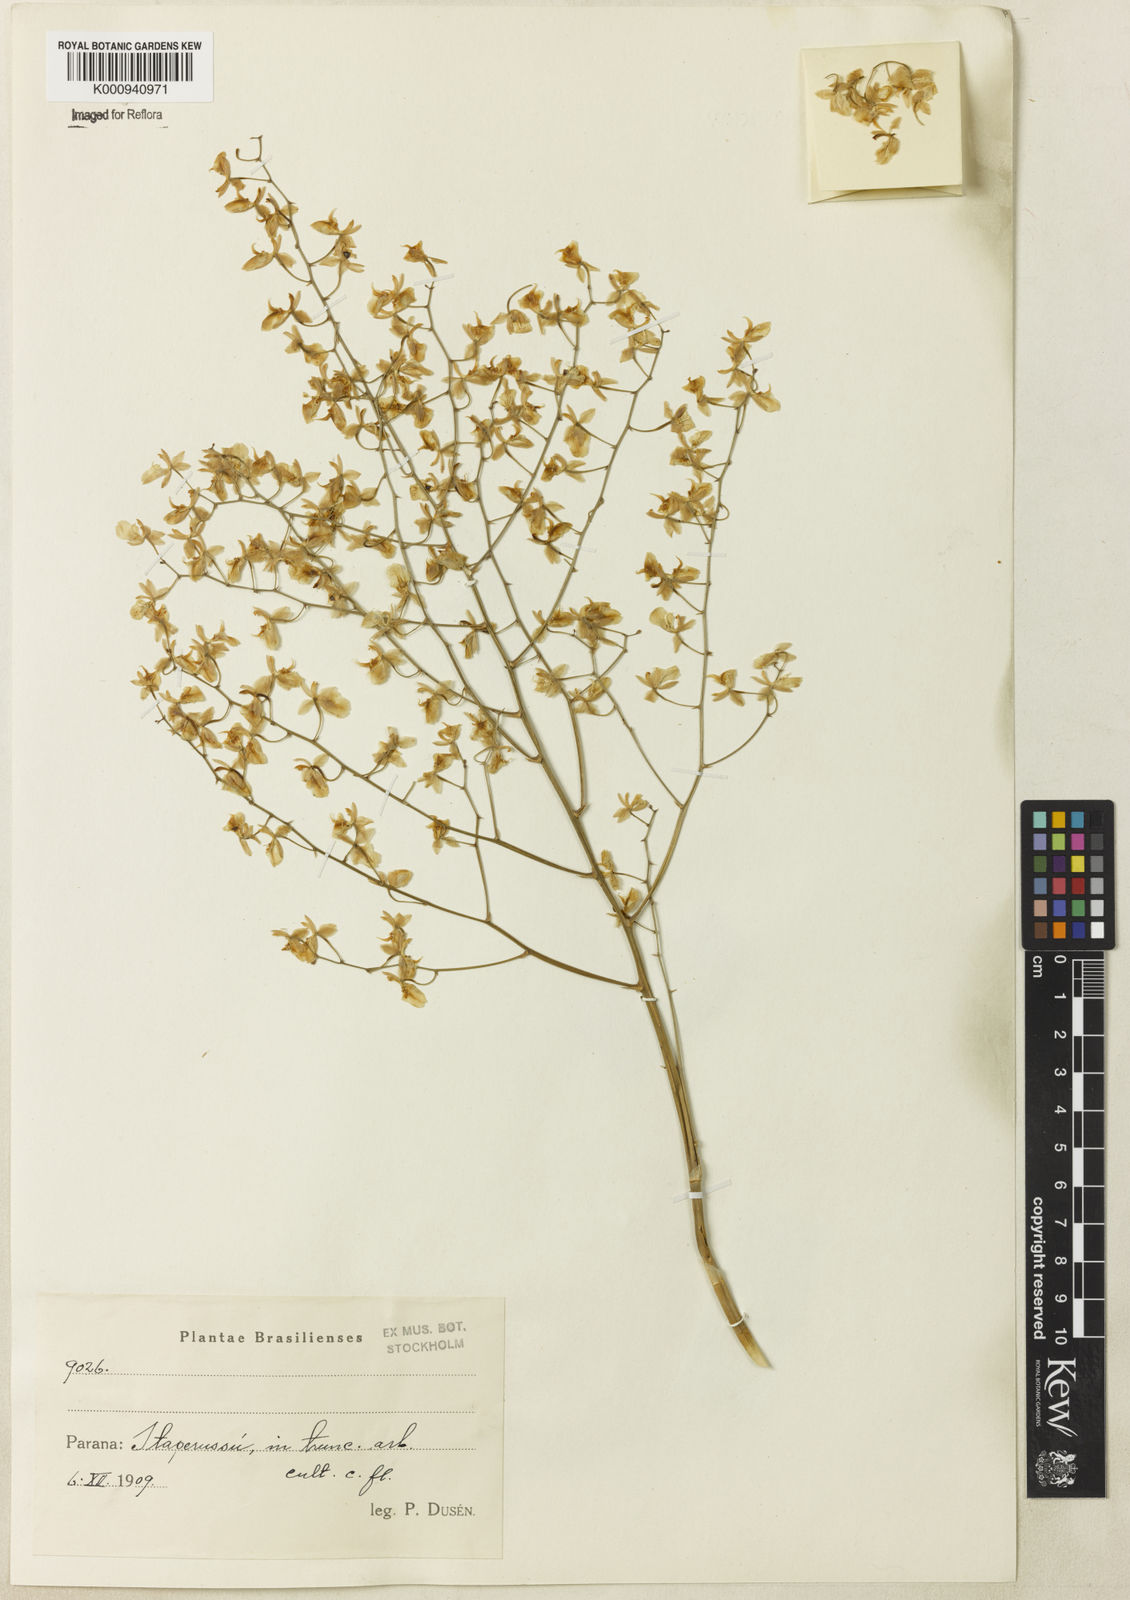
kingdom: Plantae
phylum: Tracheophyta
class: Liliopsida
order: Asparagales
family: Orchidaceae
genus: Oncidium
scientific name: Oncidium
